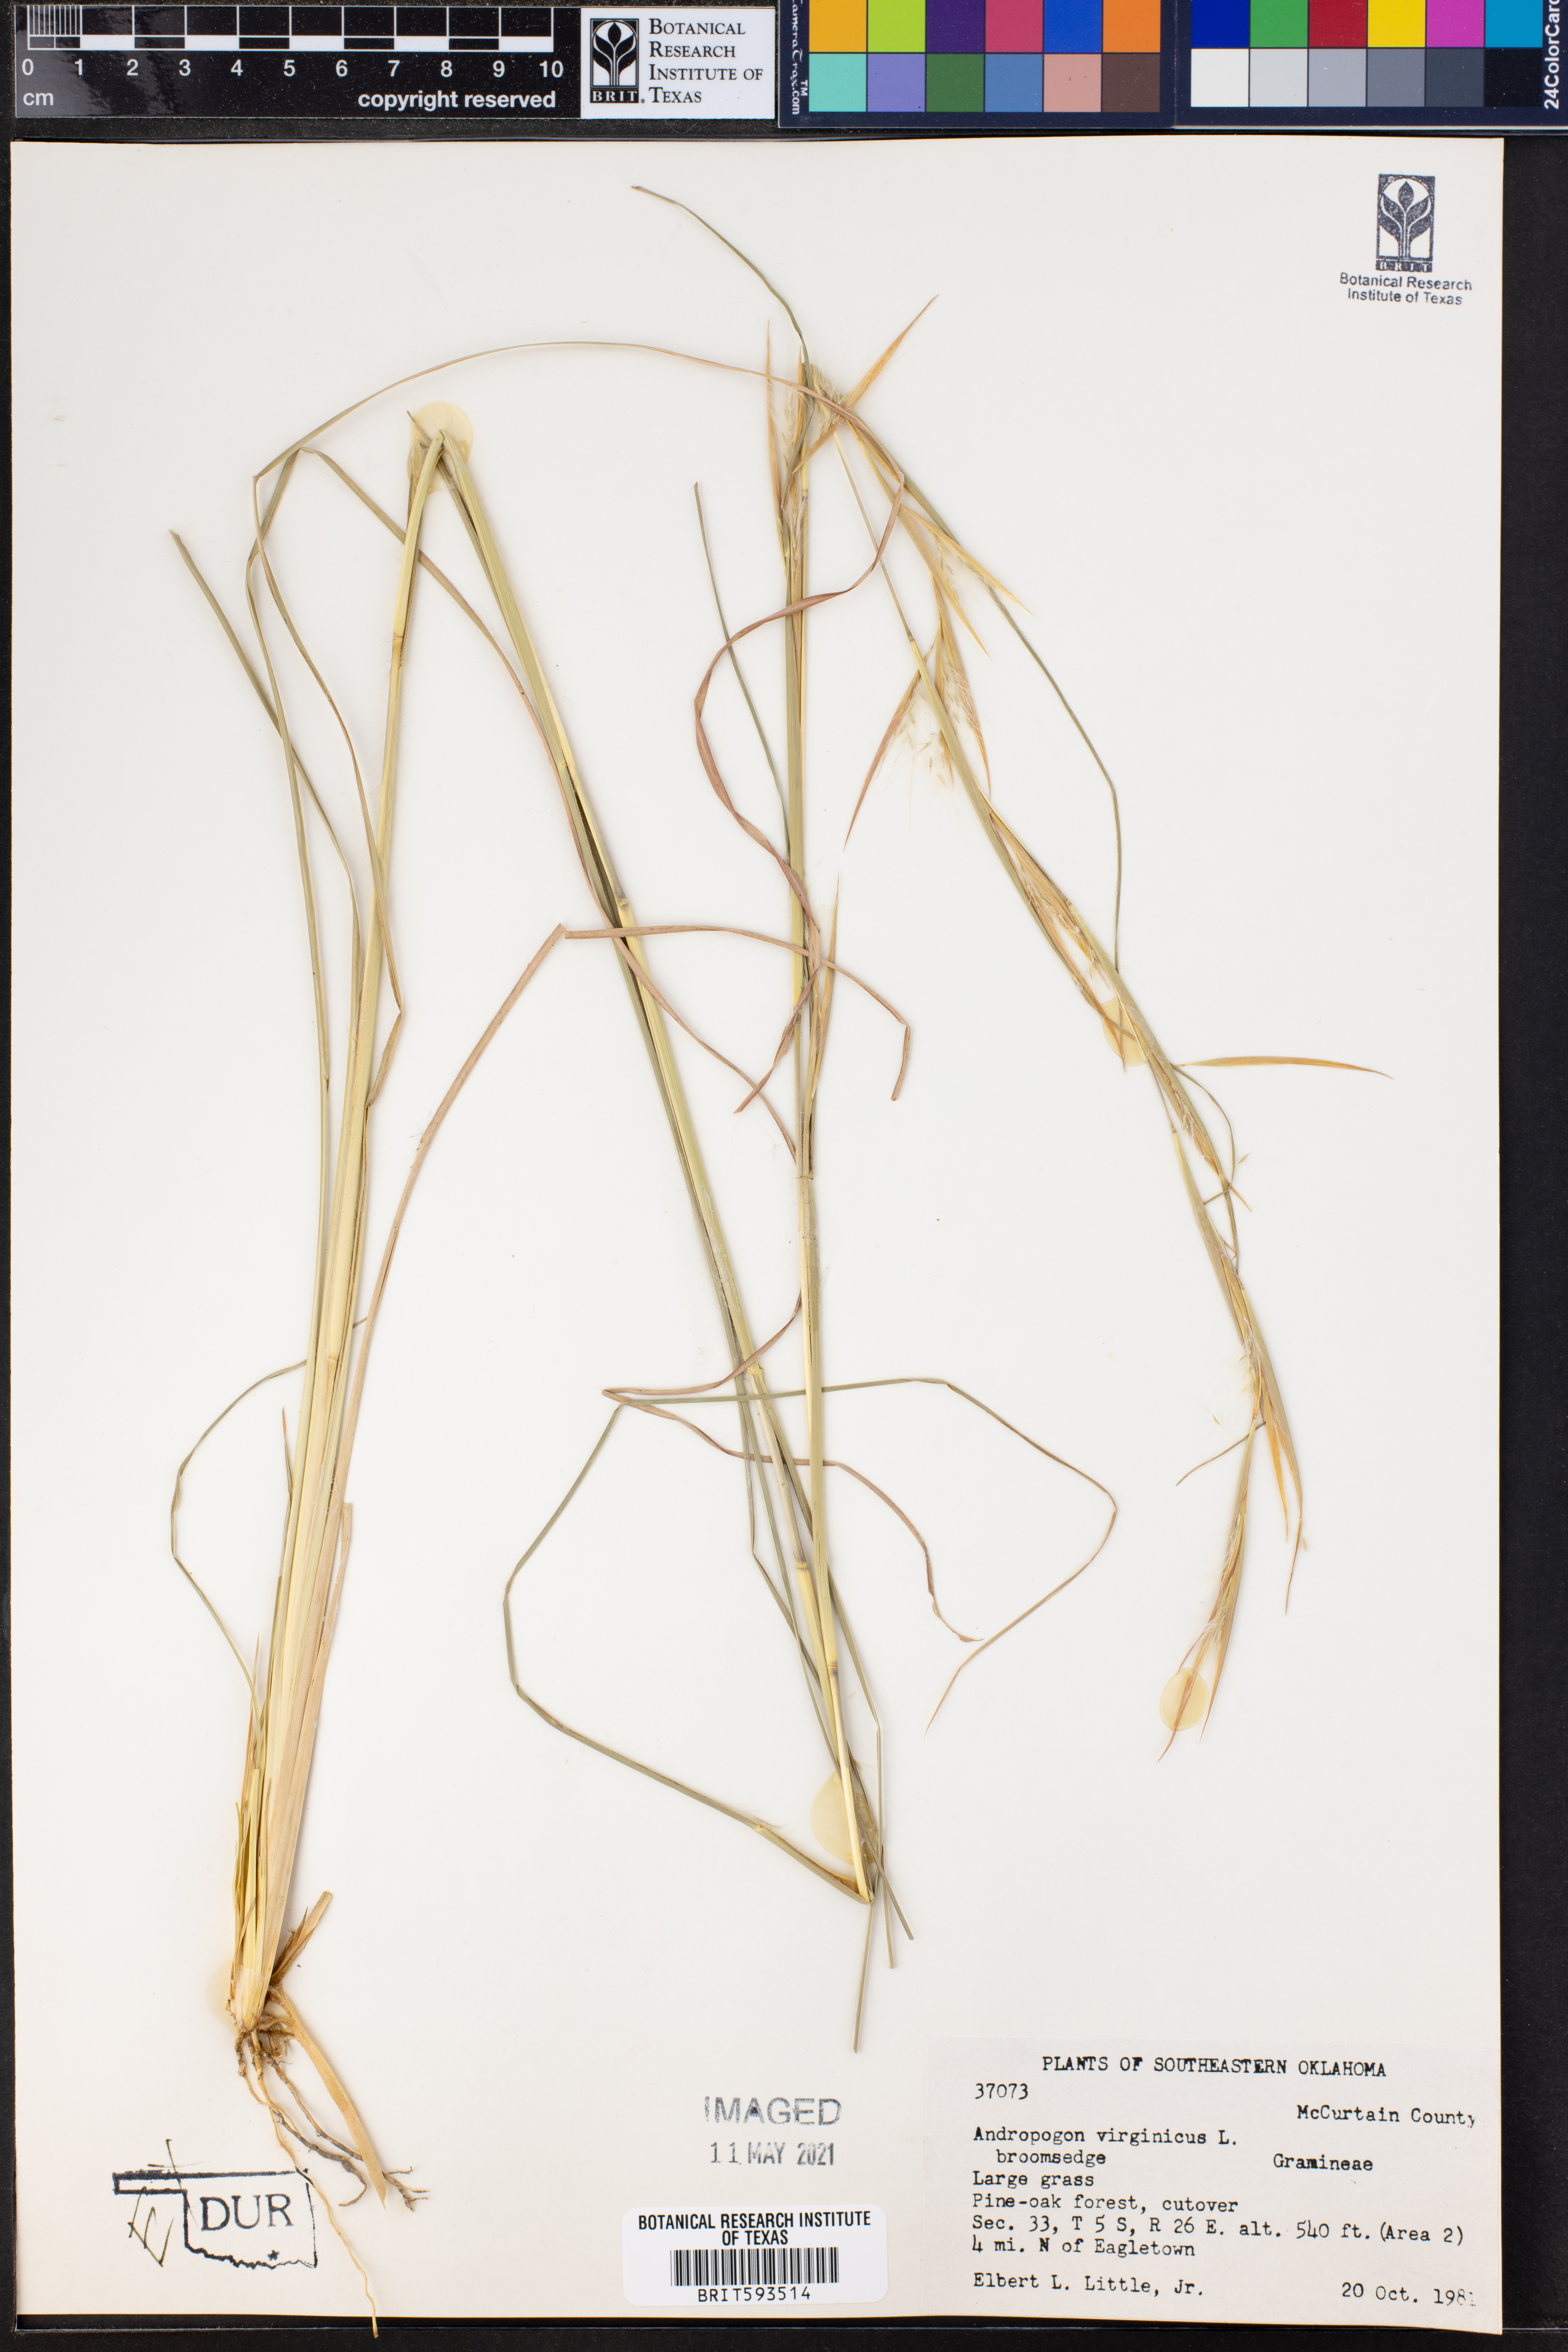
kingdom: Plantae
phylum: Tracheophyta
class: Liliopsida
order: Poales
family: Poaceae
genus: Andropogon
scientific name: Andropogon virginicus
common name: Broomsedge bluestem
